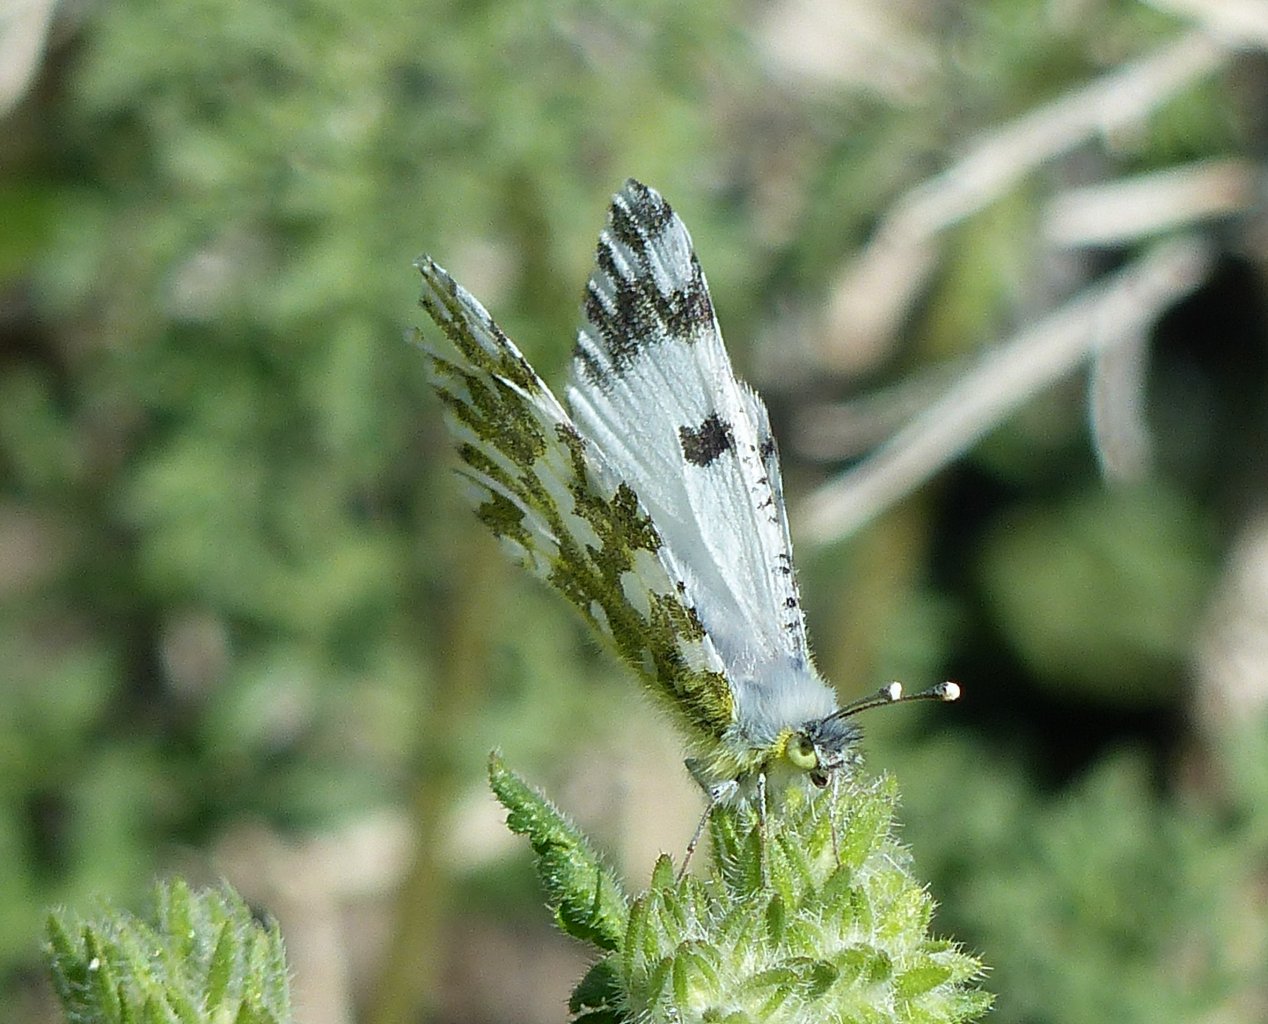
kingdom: Animalia
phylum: Arthropoda
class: Insecta
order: Lepidoptera
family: Pieridae
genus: Euchloe
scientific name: Euchloe hyantis
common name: California Marble
